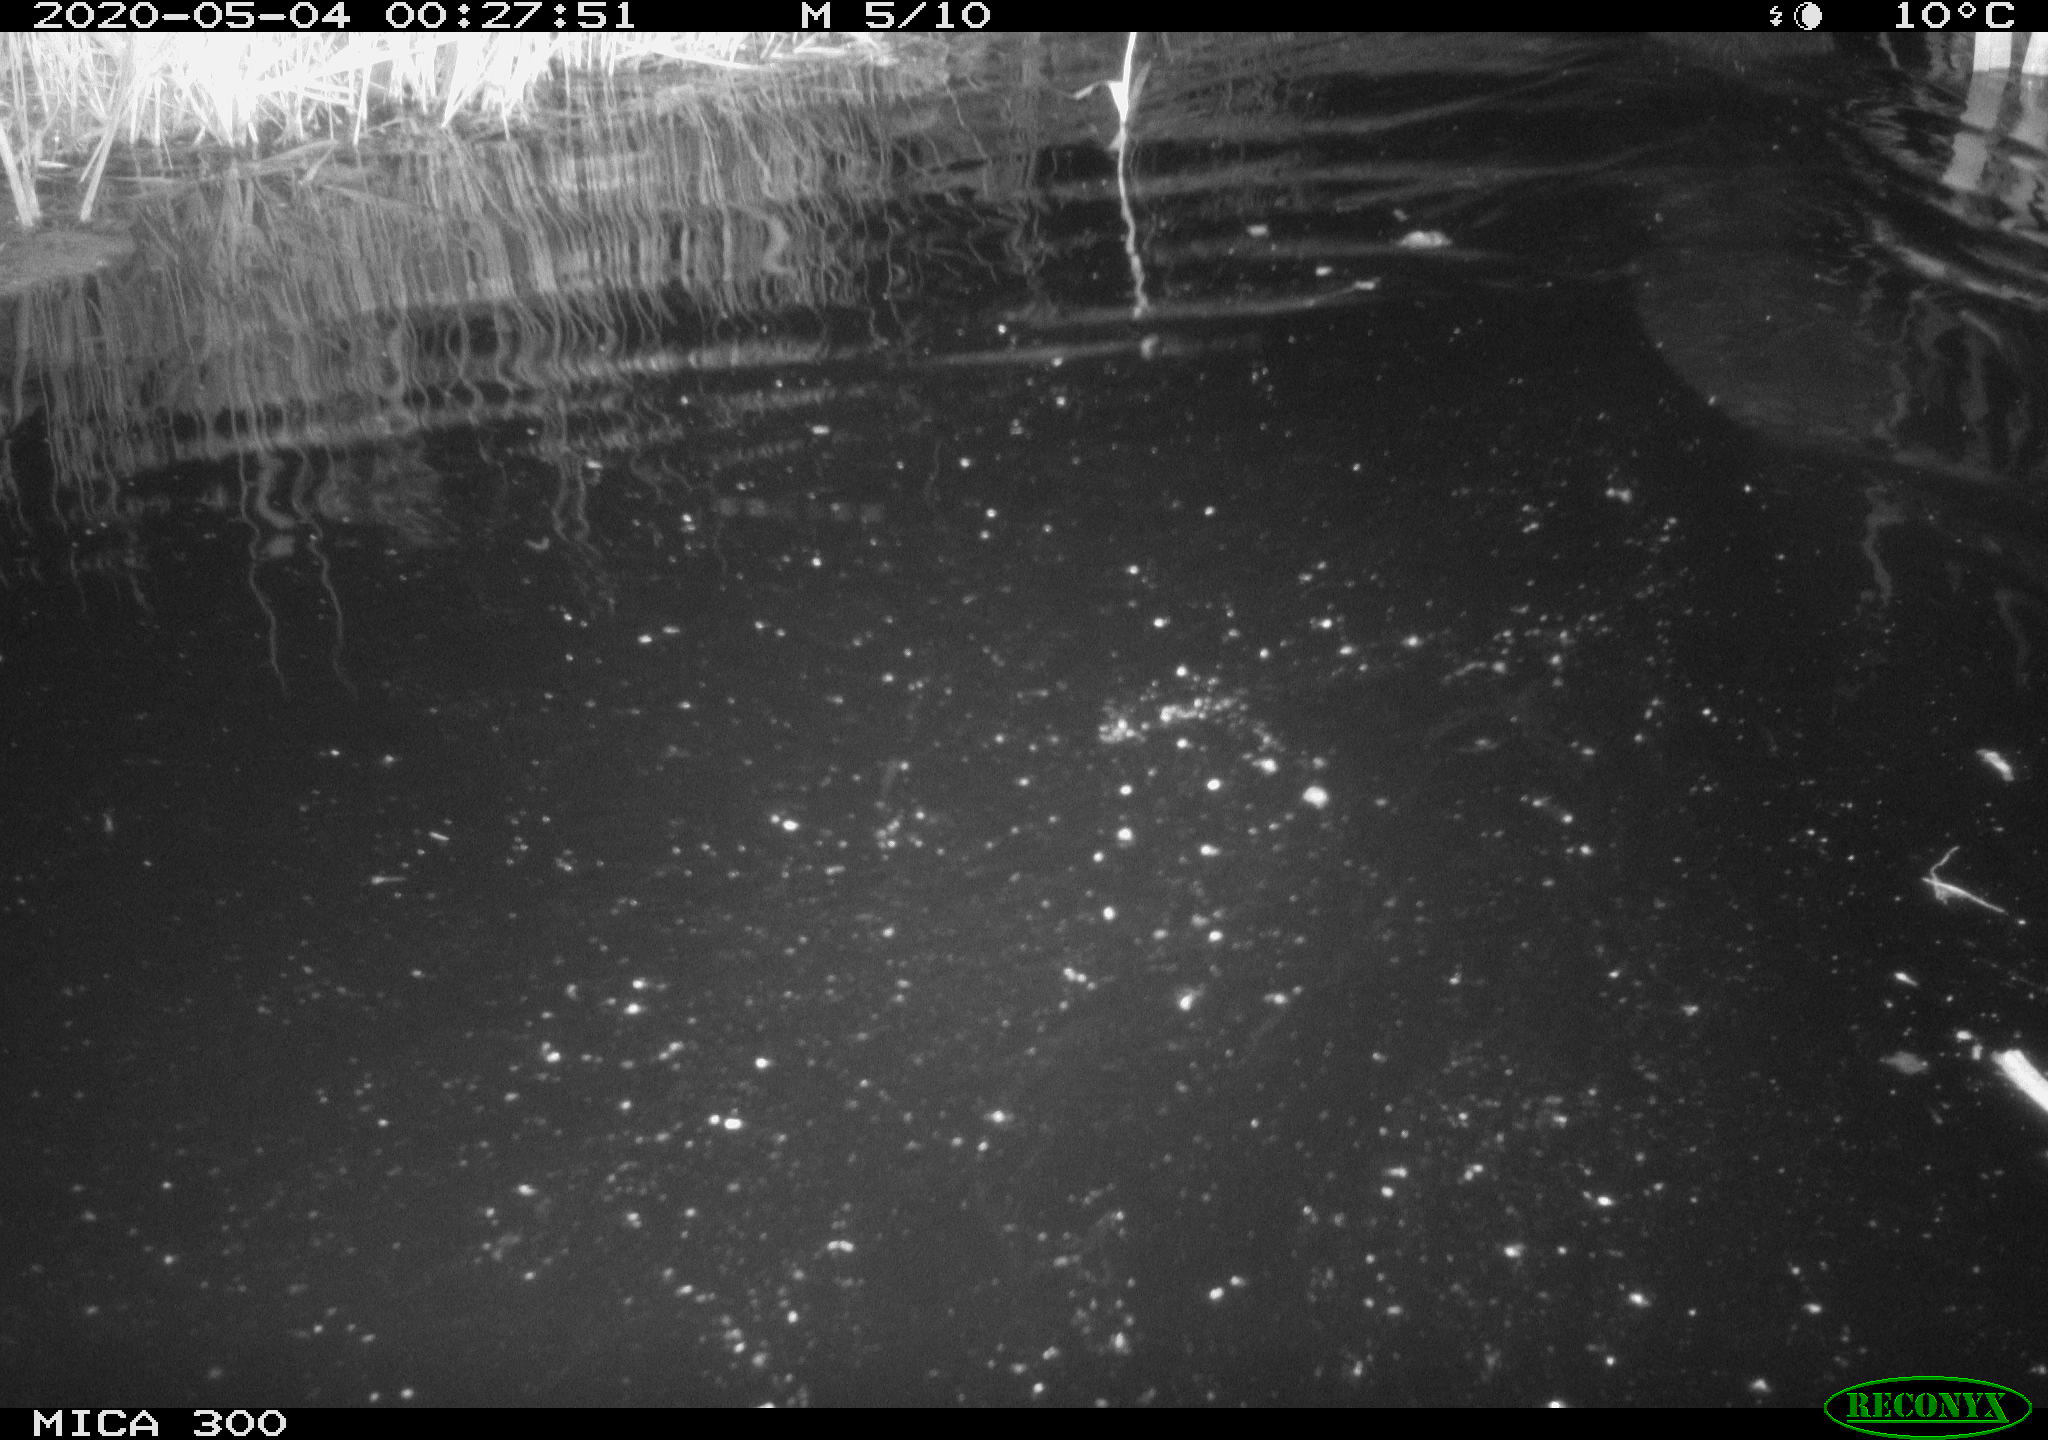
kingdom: Animalia
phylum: Chordata
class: Mammalia
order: Rodentia
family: Castoridae
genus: Castor
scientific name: Castor fiber
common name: Eurasian beaver
